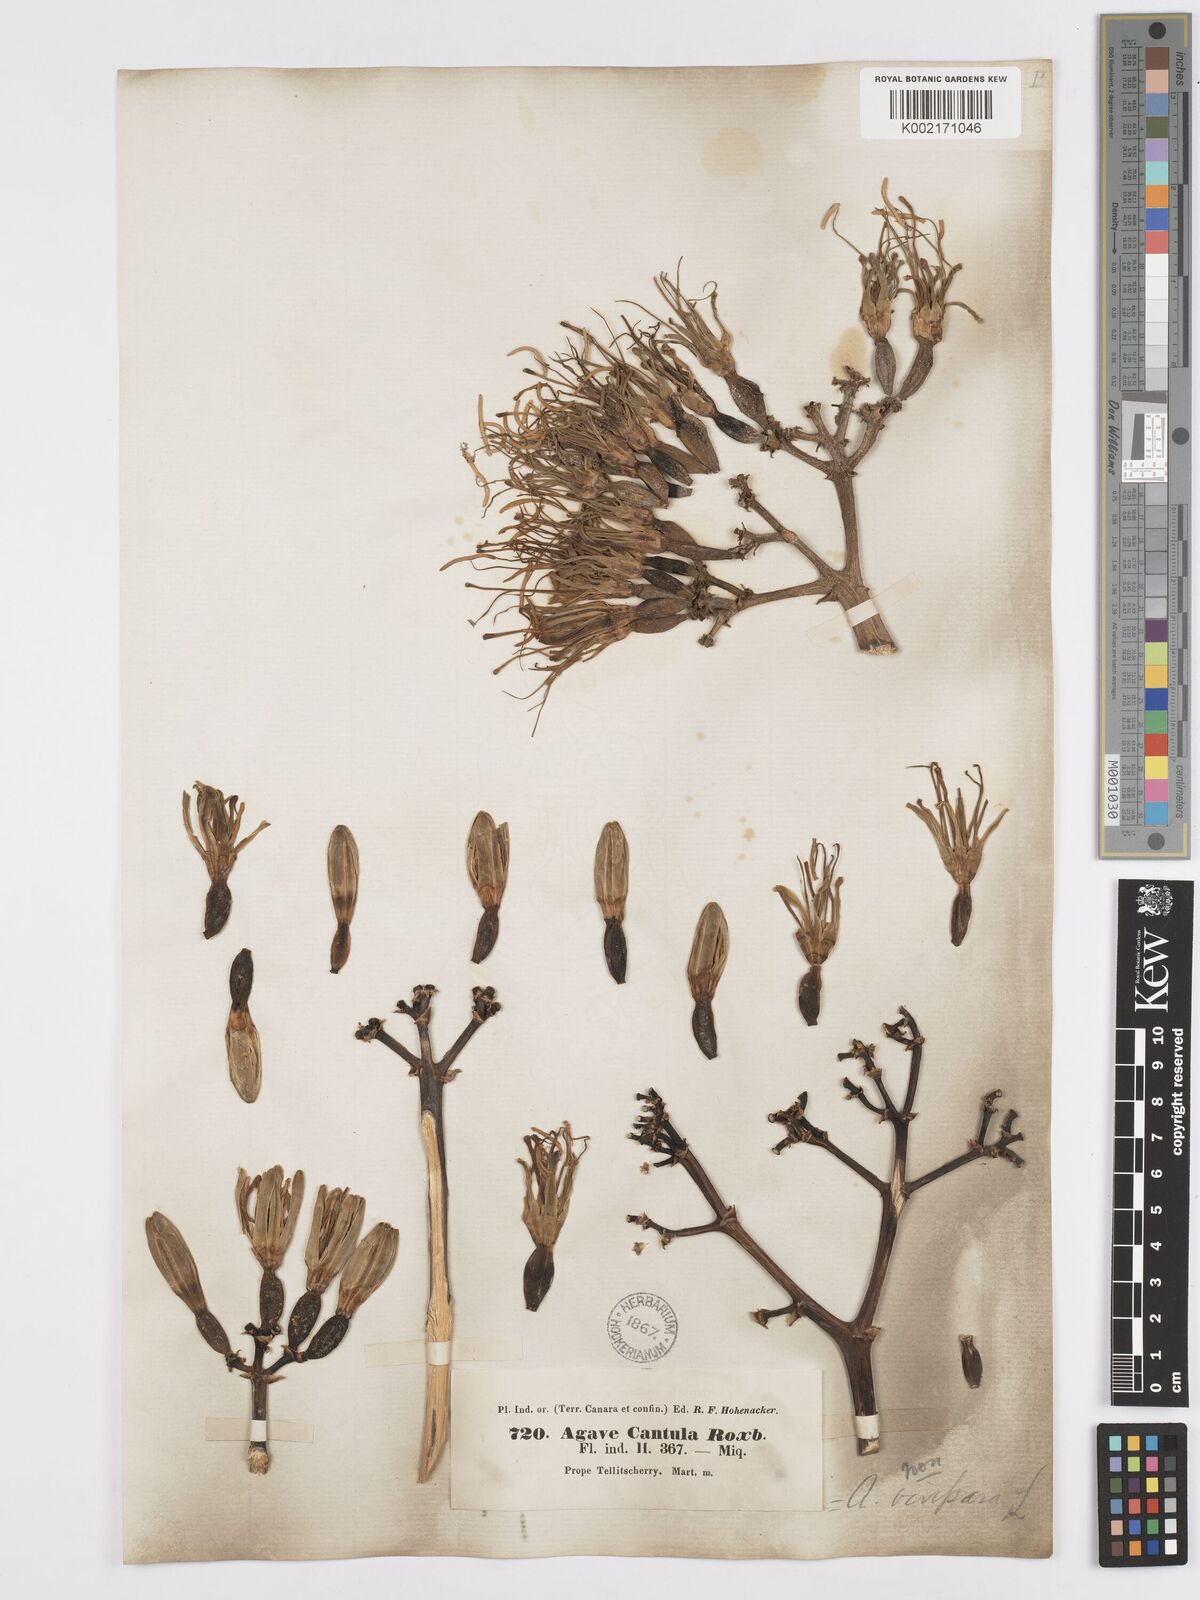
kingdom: Plantae
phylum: Tracheophyta
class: Liliopsida
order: Asparagales
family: Asparagaceae
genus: Agave
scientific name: Agave vivipara
